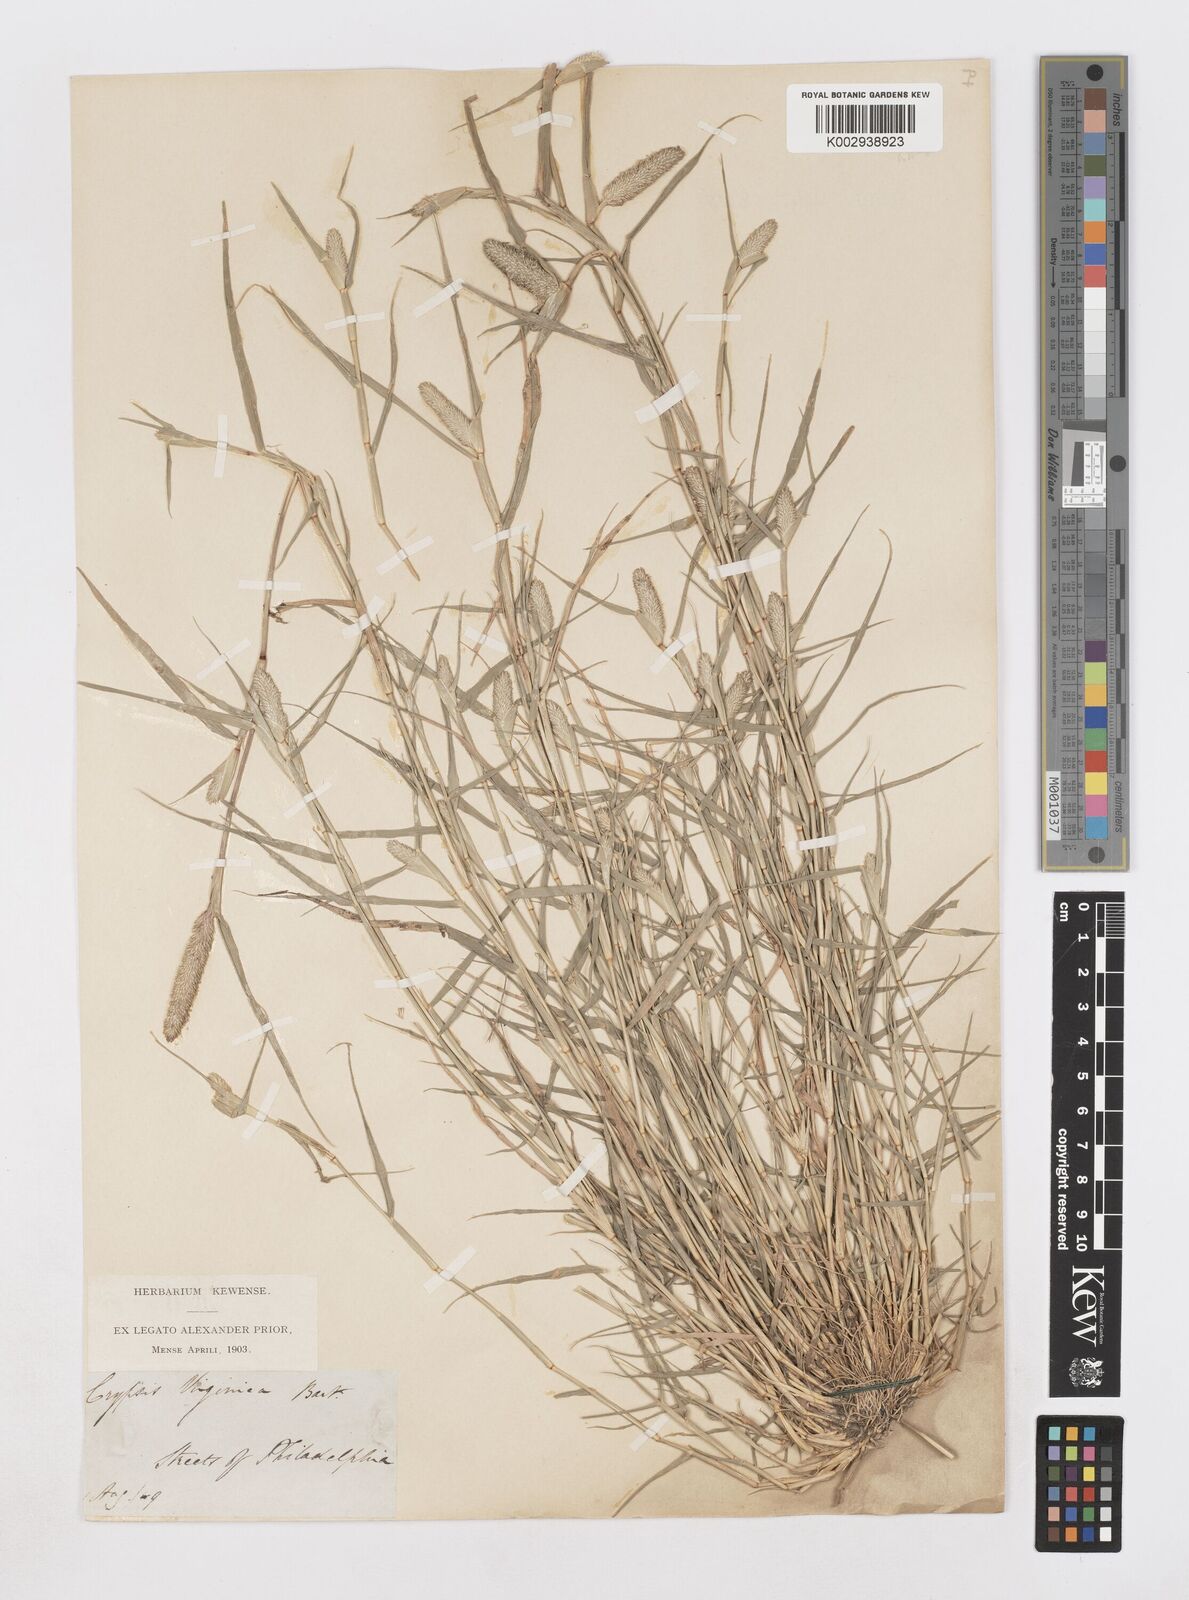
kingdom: Animalia
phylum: Arthropoda
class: Insecta
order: Coleoptera
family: Tenebrionidae
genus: Crypsis
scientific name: Crypsis
